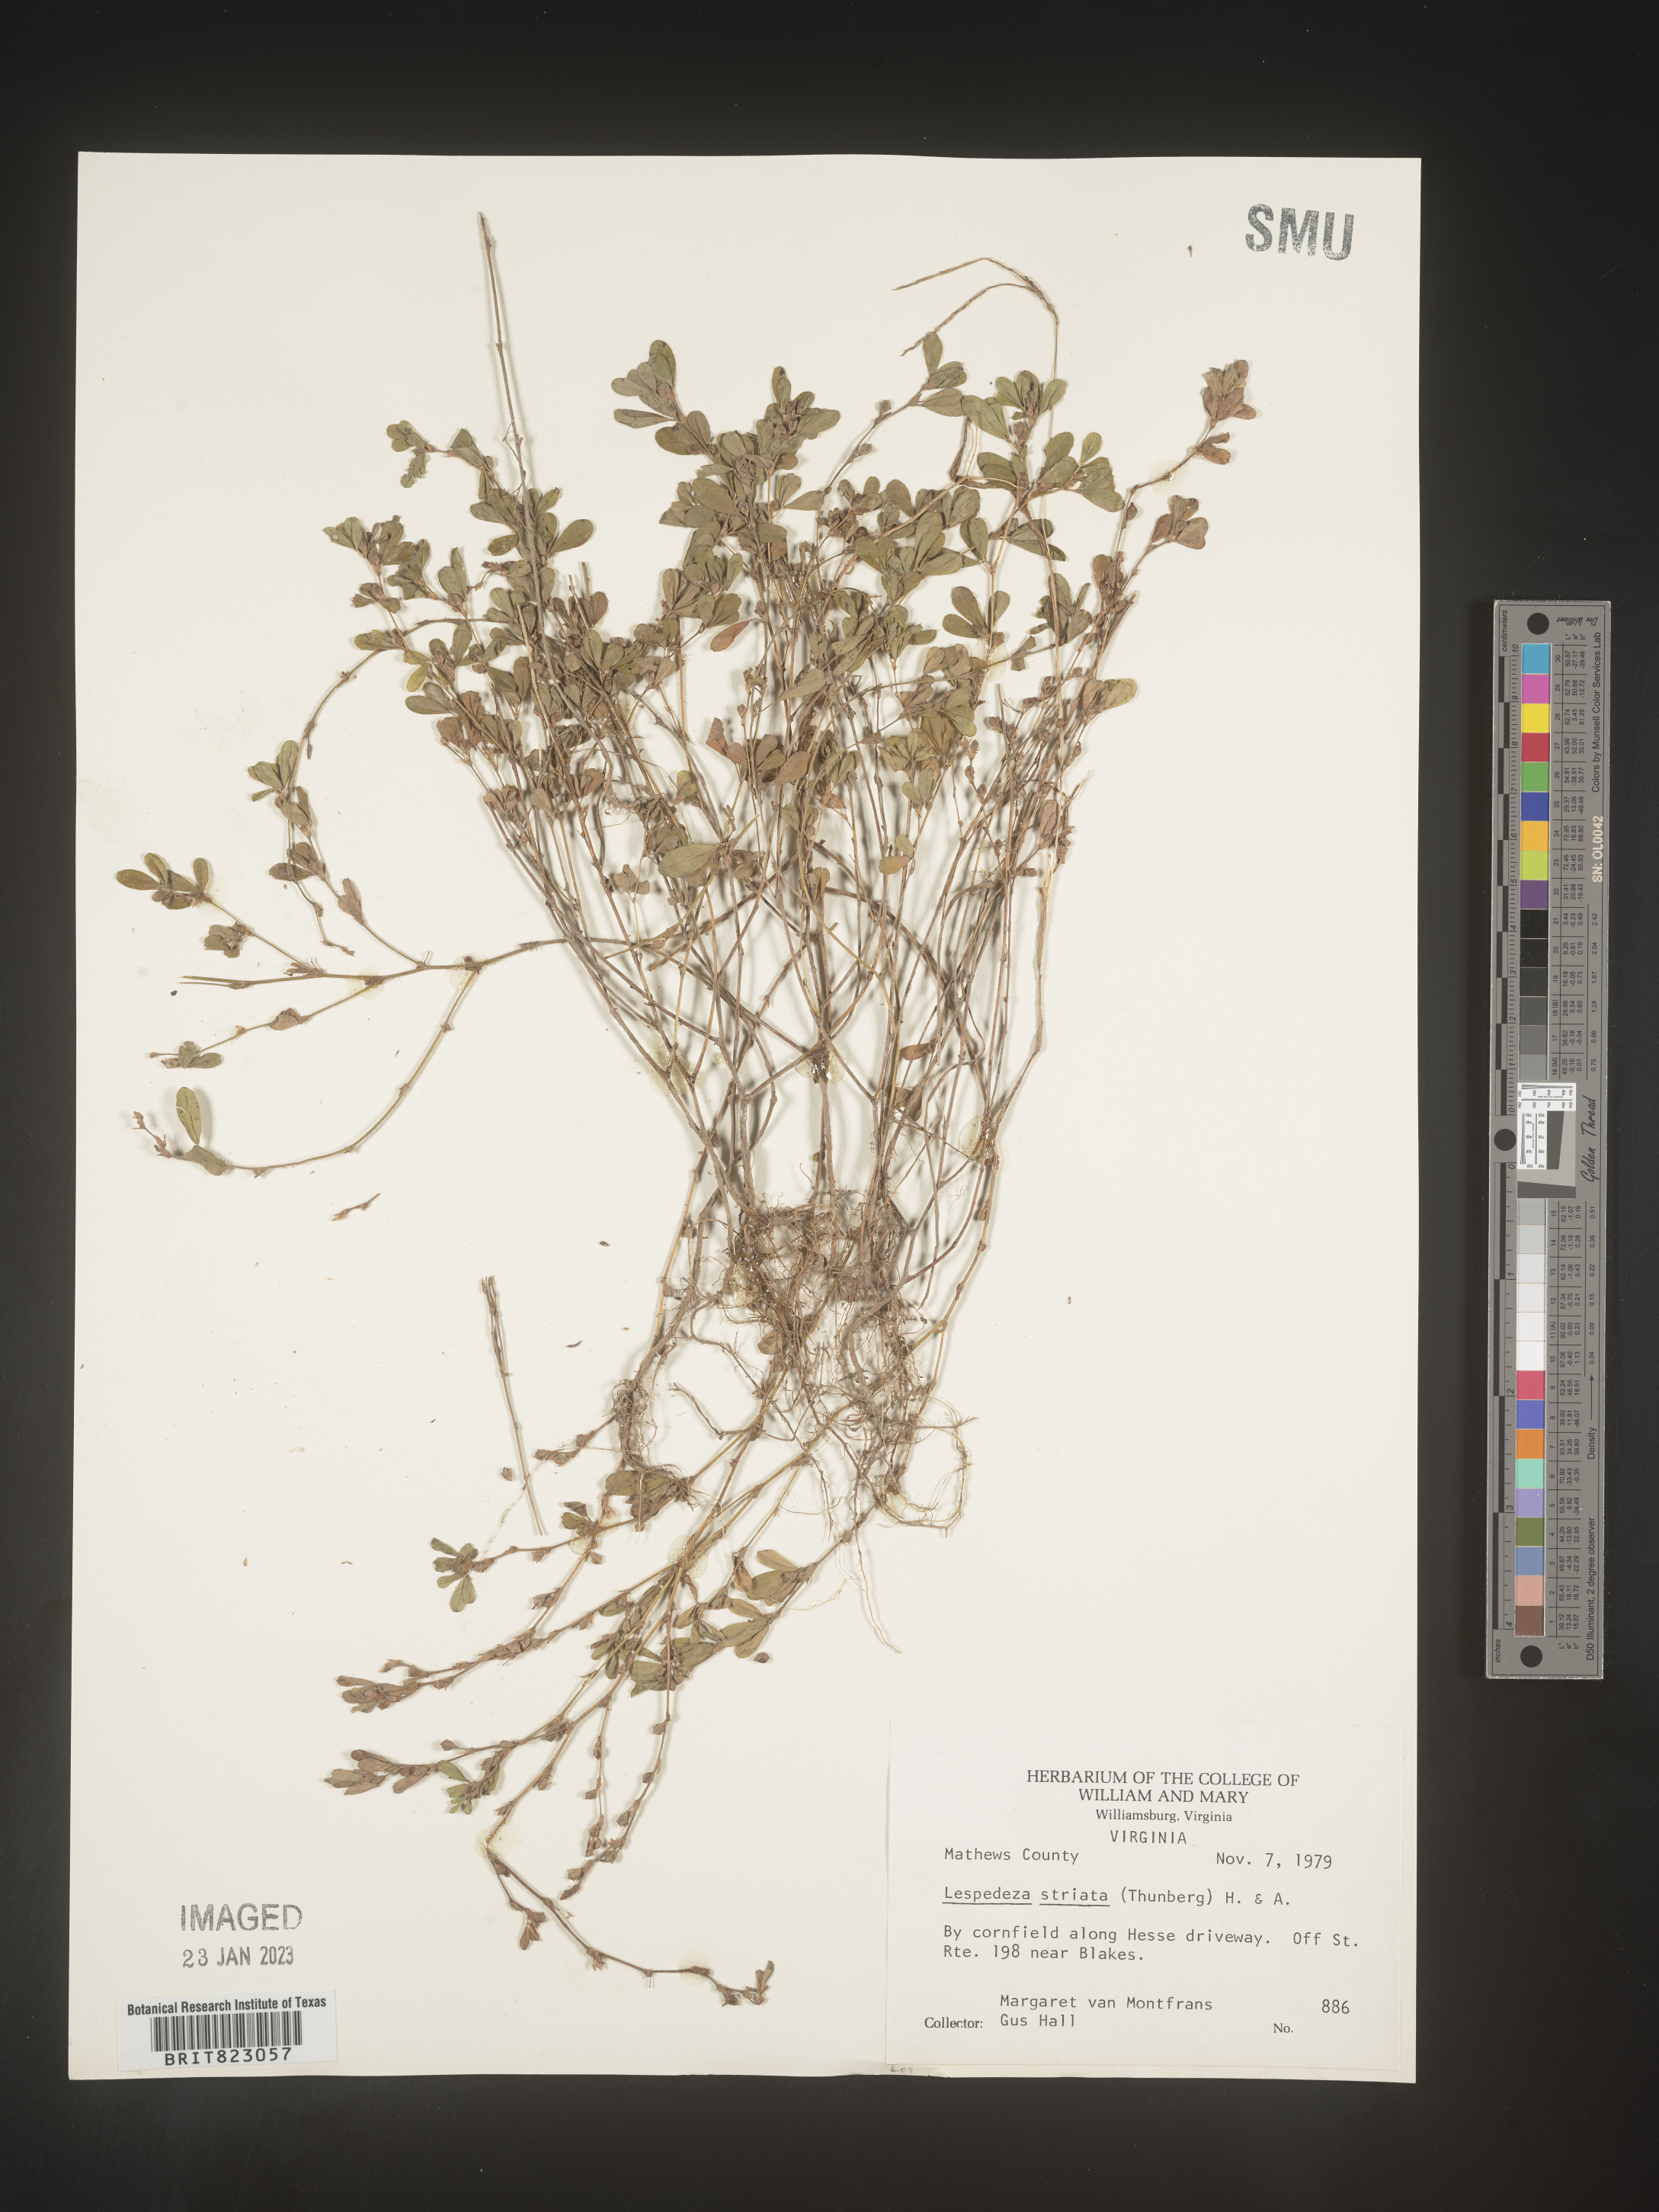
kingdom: Plantae
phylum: Tracheophyta
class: Magnoliopsida
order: Fabales
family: Fabaceae
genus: Kummerowia
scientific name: Kummerowia striata
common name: Japanese clover
